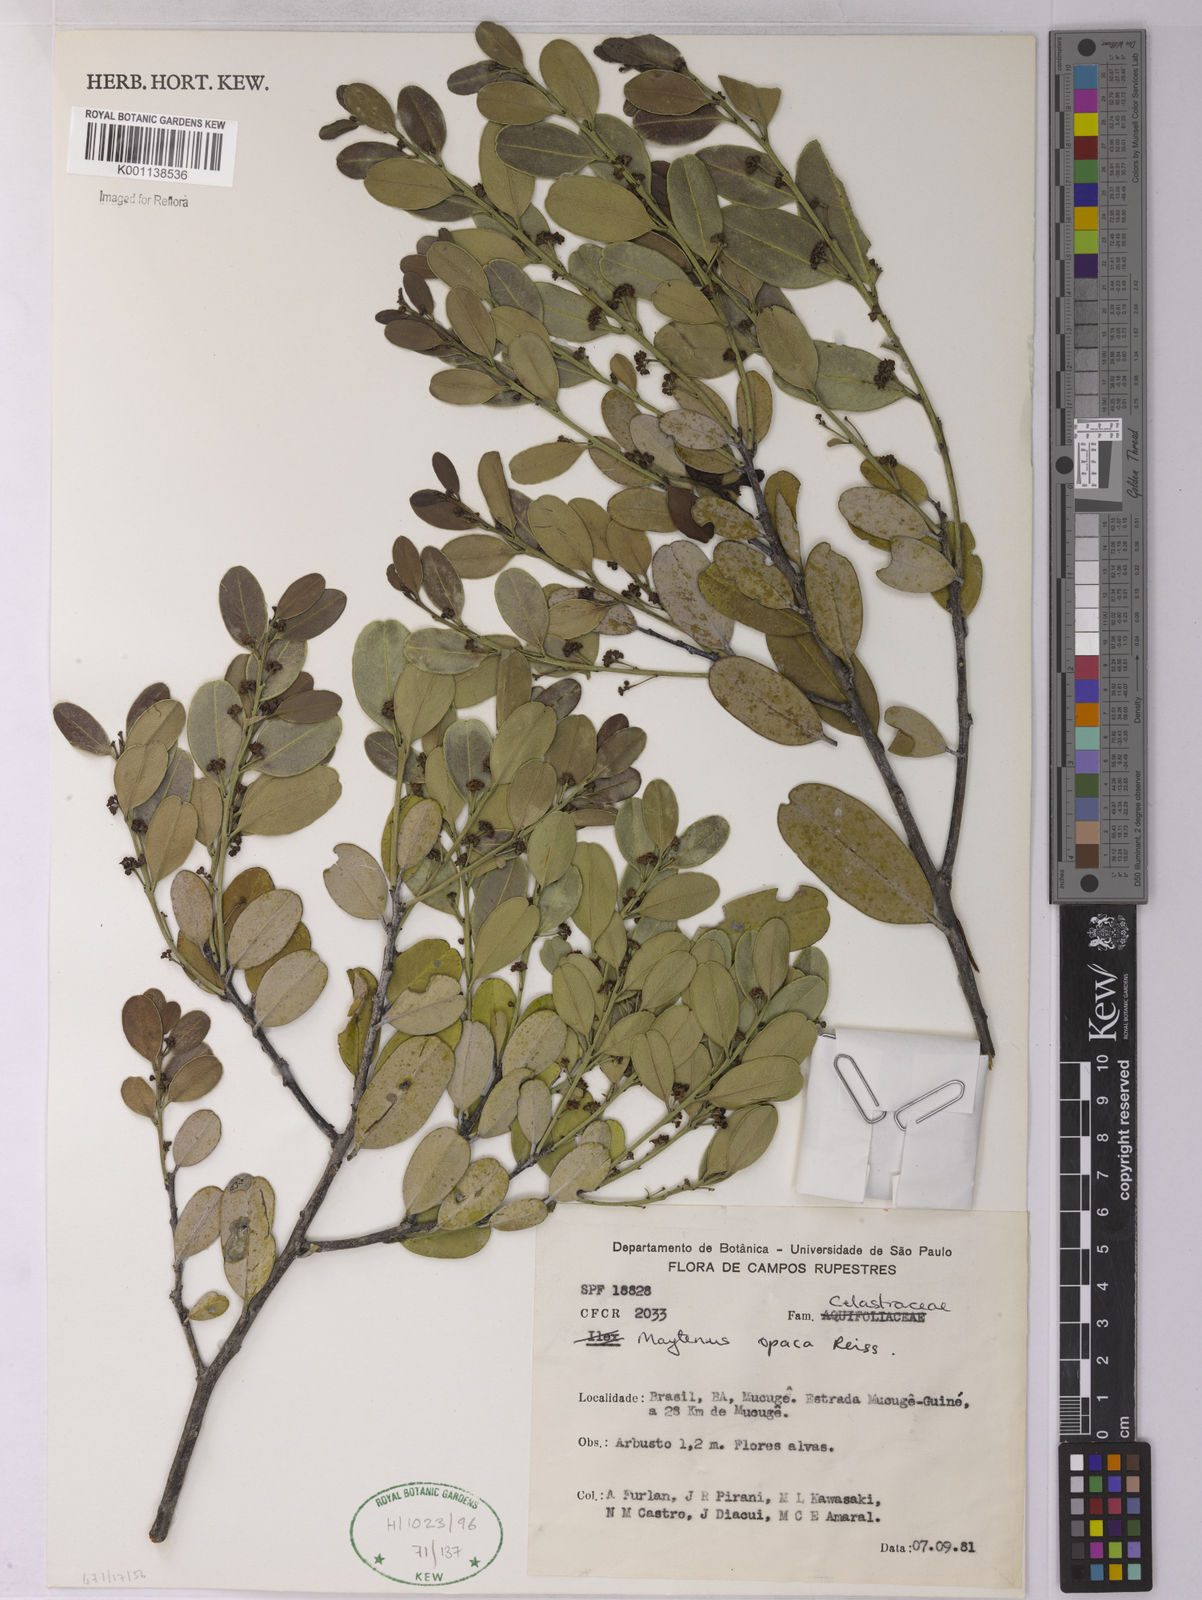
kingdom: Plantae
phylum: Tracheophyta
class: Magnoliopsida
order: Celastrales
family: Celastraceae
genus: Monteverdia
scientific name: Monteverdia opaca
